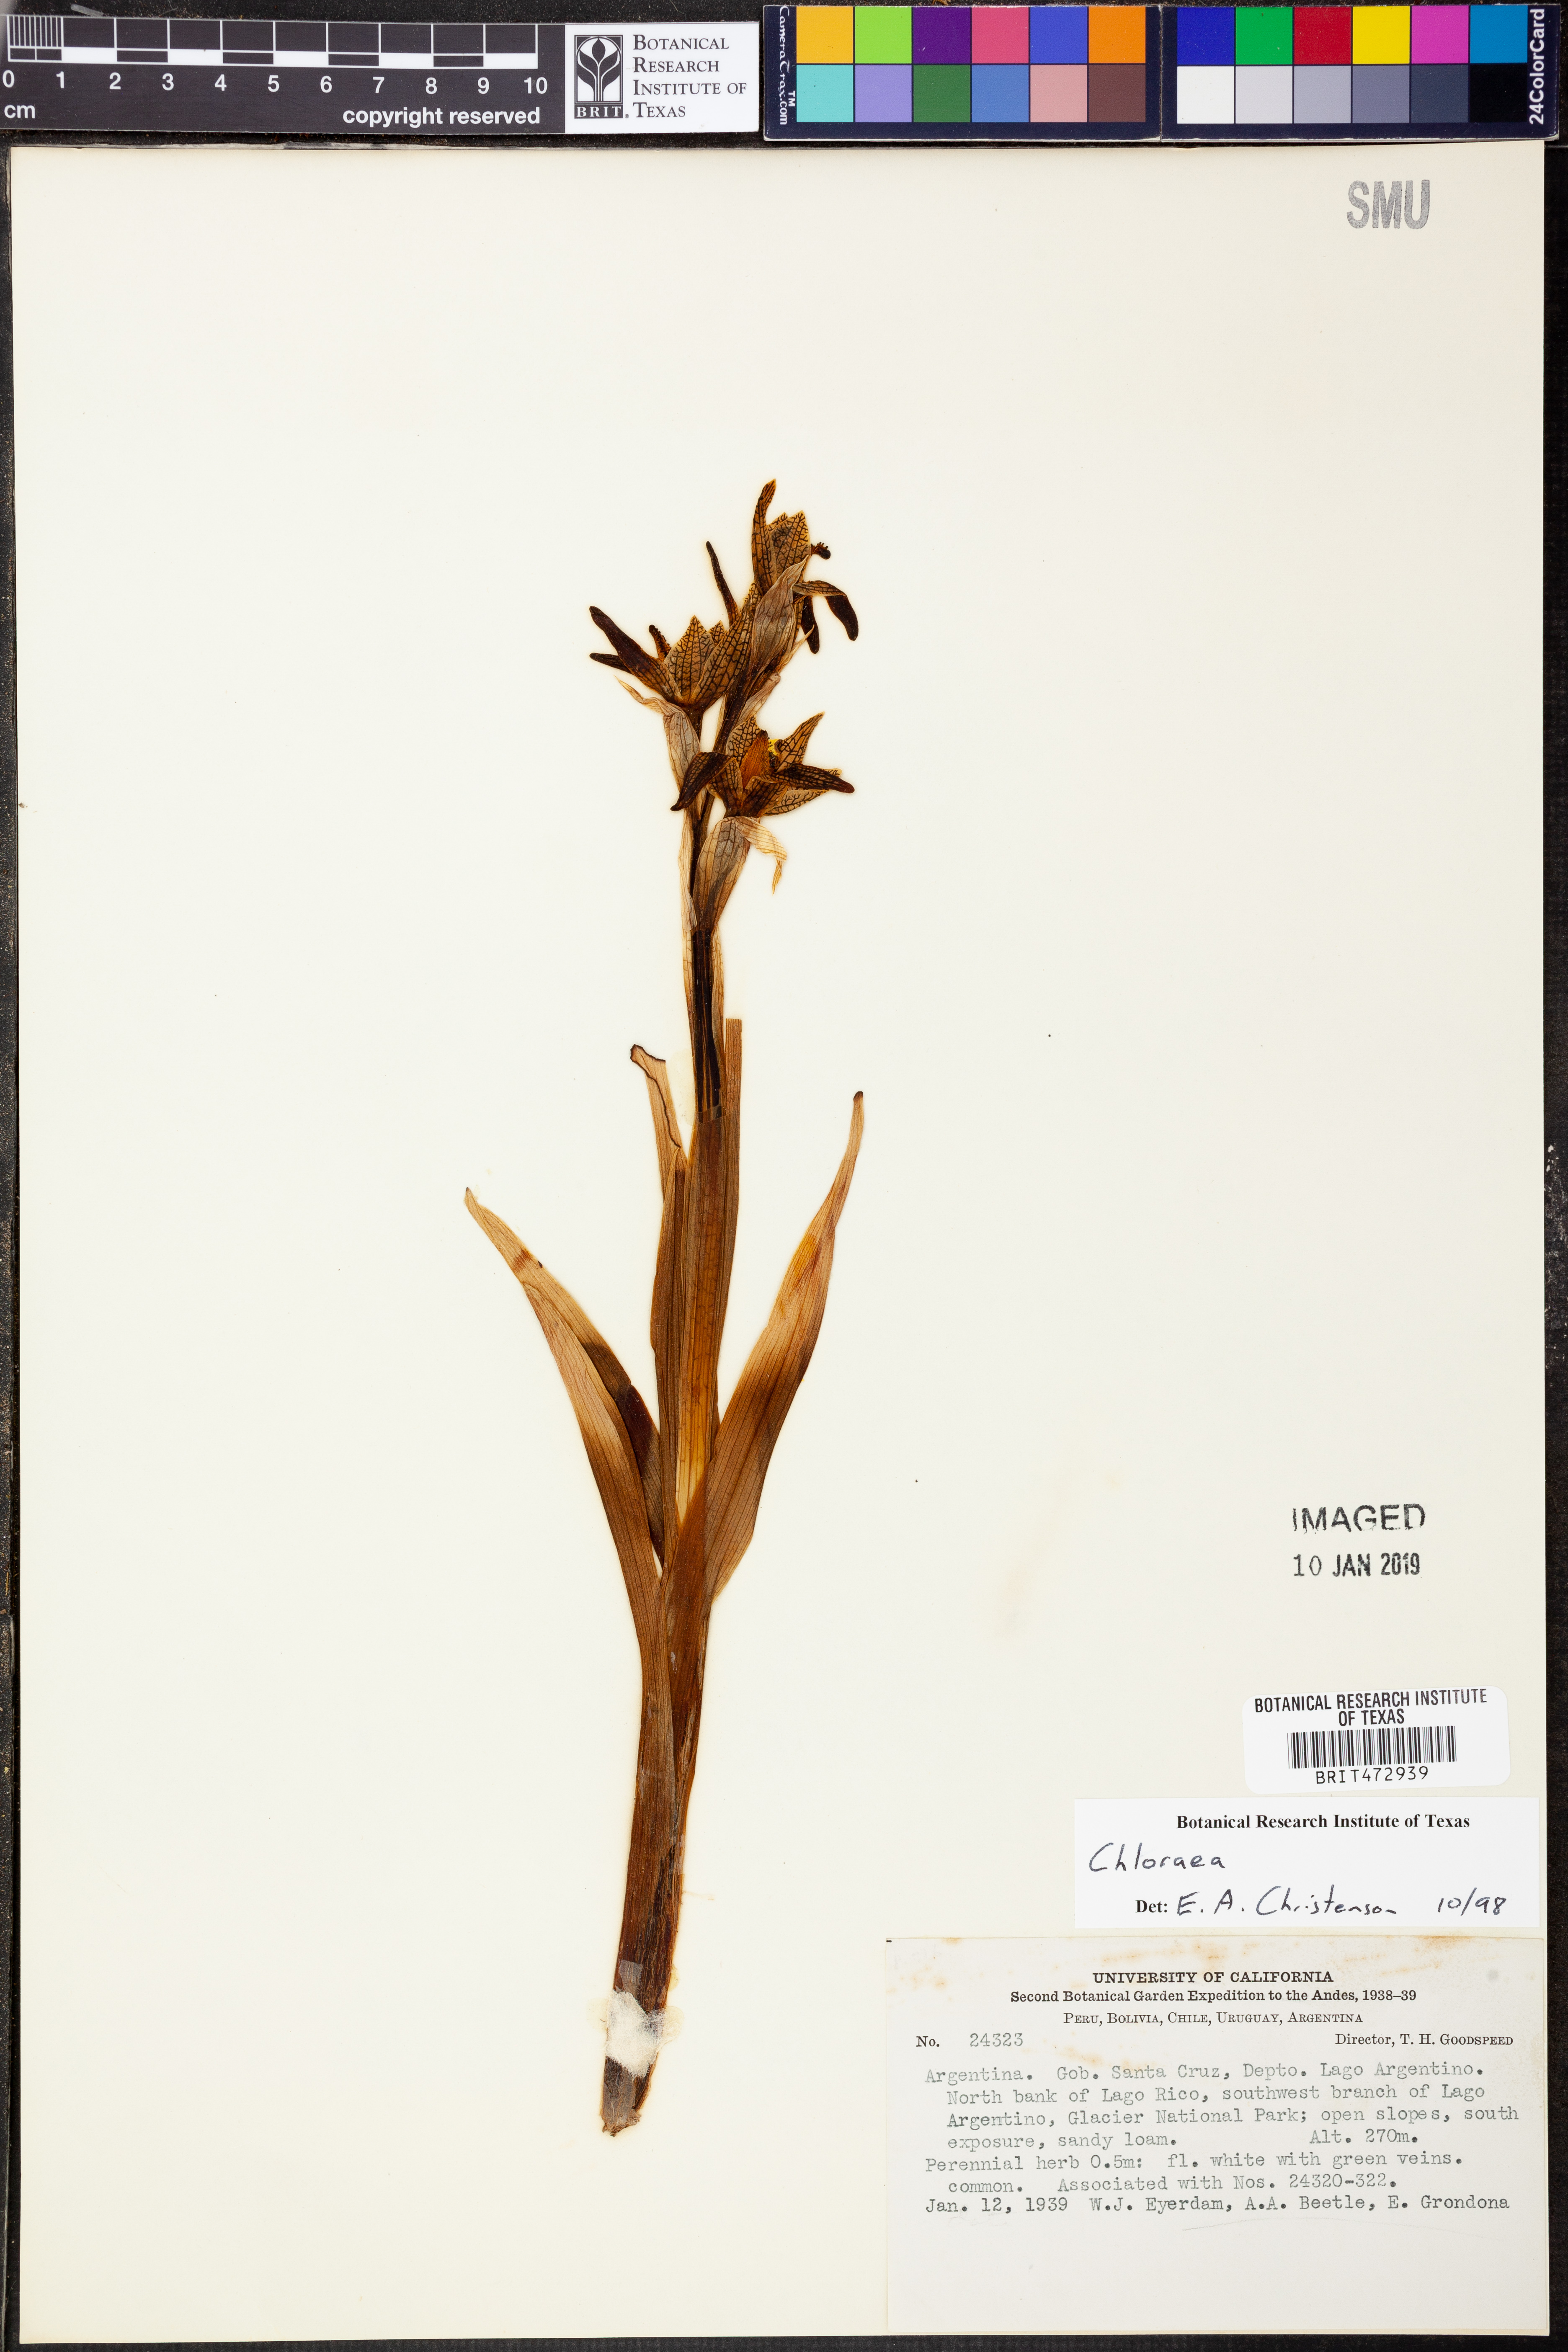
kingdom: Plantae
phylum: Tracheophyta
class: Liliopsida
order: Asparagales
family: Orchidaceae
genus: Chloraea
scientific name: Chloraea
